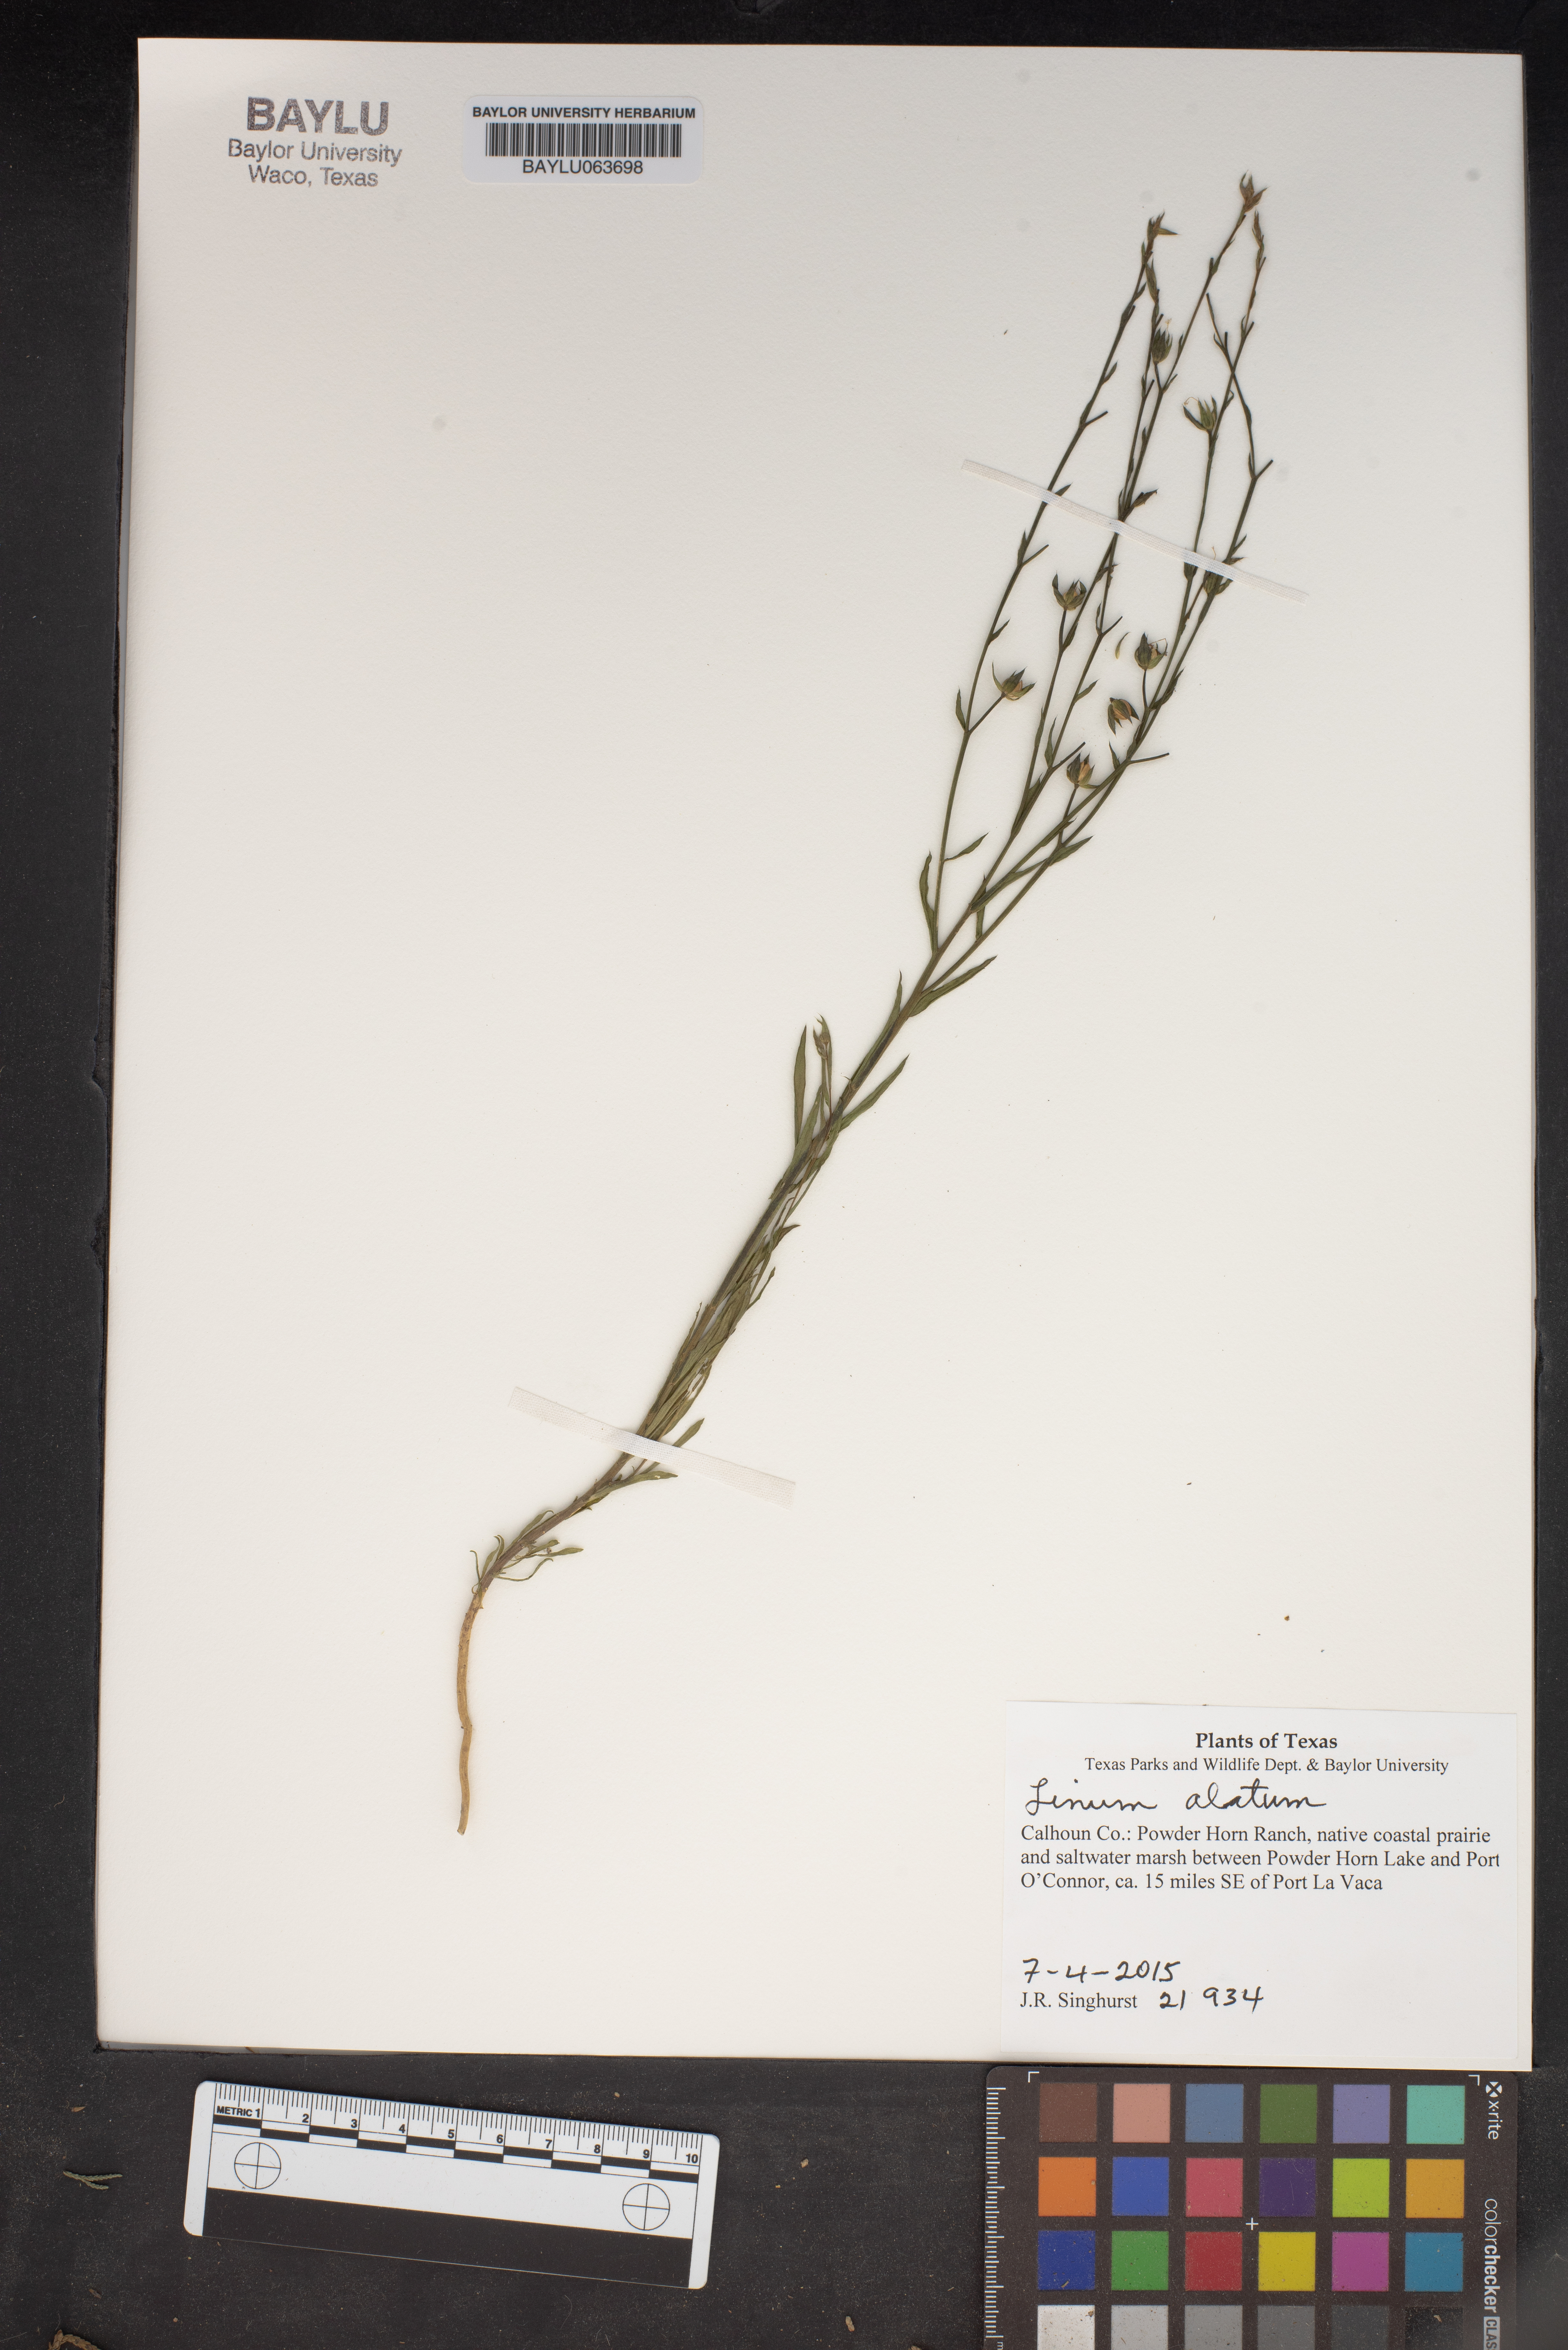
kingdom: Plantae
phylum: Tracheophyta
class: Magnoliopsida
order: Malpighiales
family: Linaceae
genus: Linum
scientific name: Linum alatum
